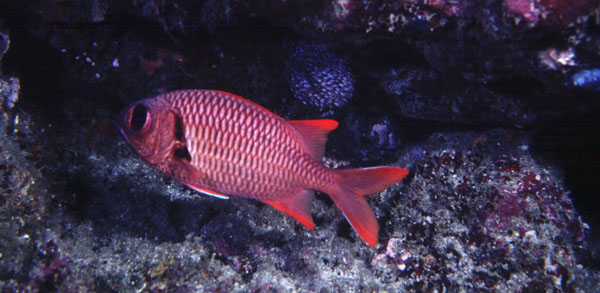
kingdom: Animalia
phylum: Chordata
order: Beryciformes
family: Holocentridae
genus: Myripristis
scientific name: Myripristis murdjan
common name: Big-eye soldierfish
